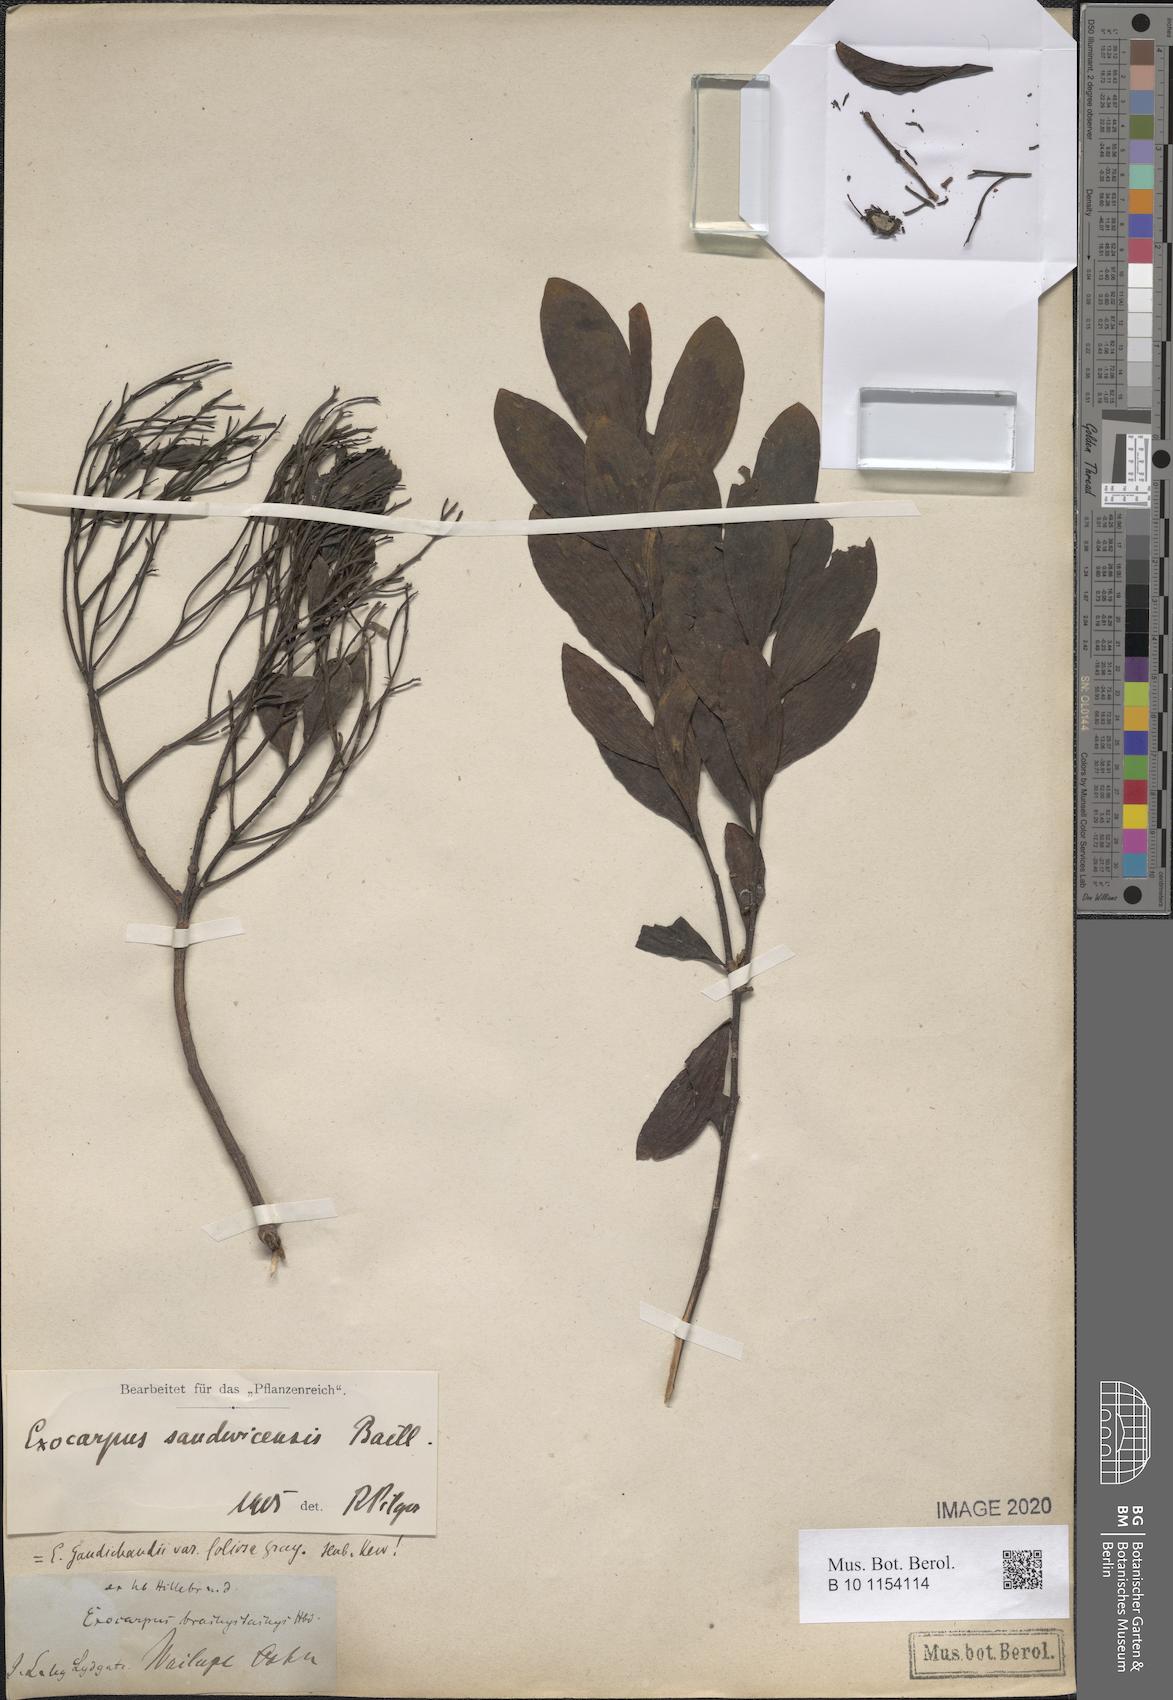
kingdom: Plantae
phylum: Tracheophyta
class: Magnoliopsida
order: Santalales
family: Santalaceae
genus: Exocarpos
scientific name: Exocarpos sandvicensis
